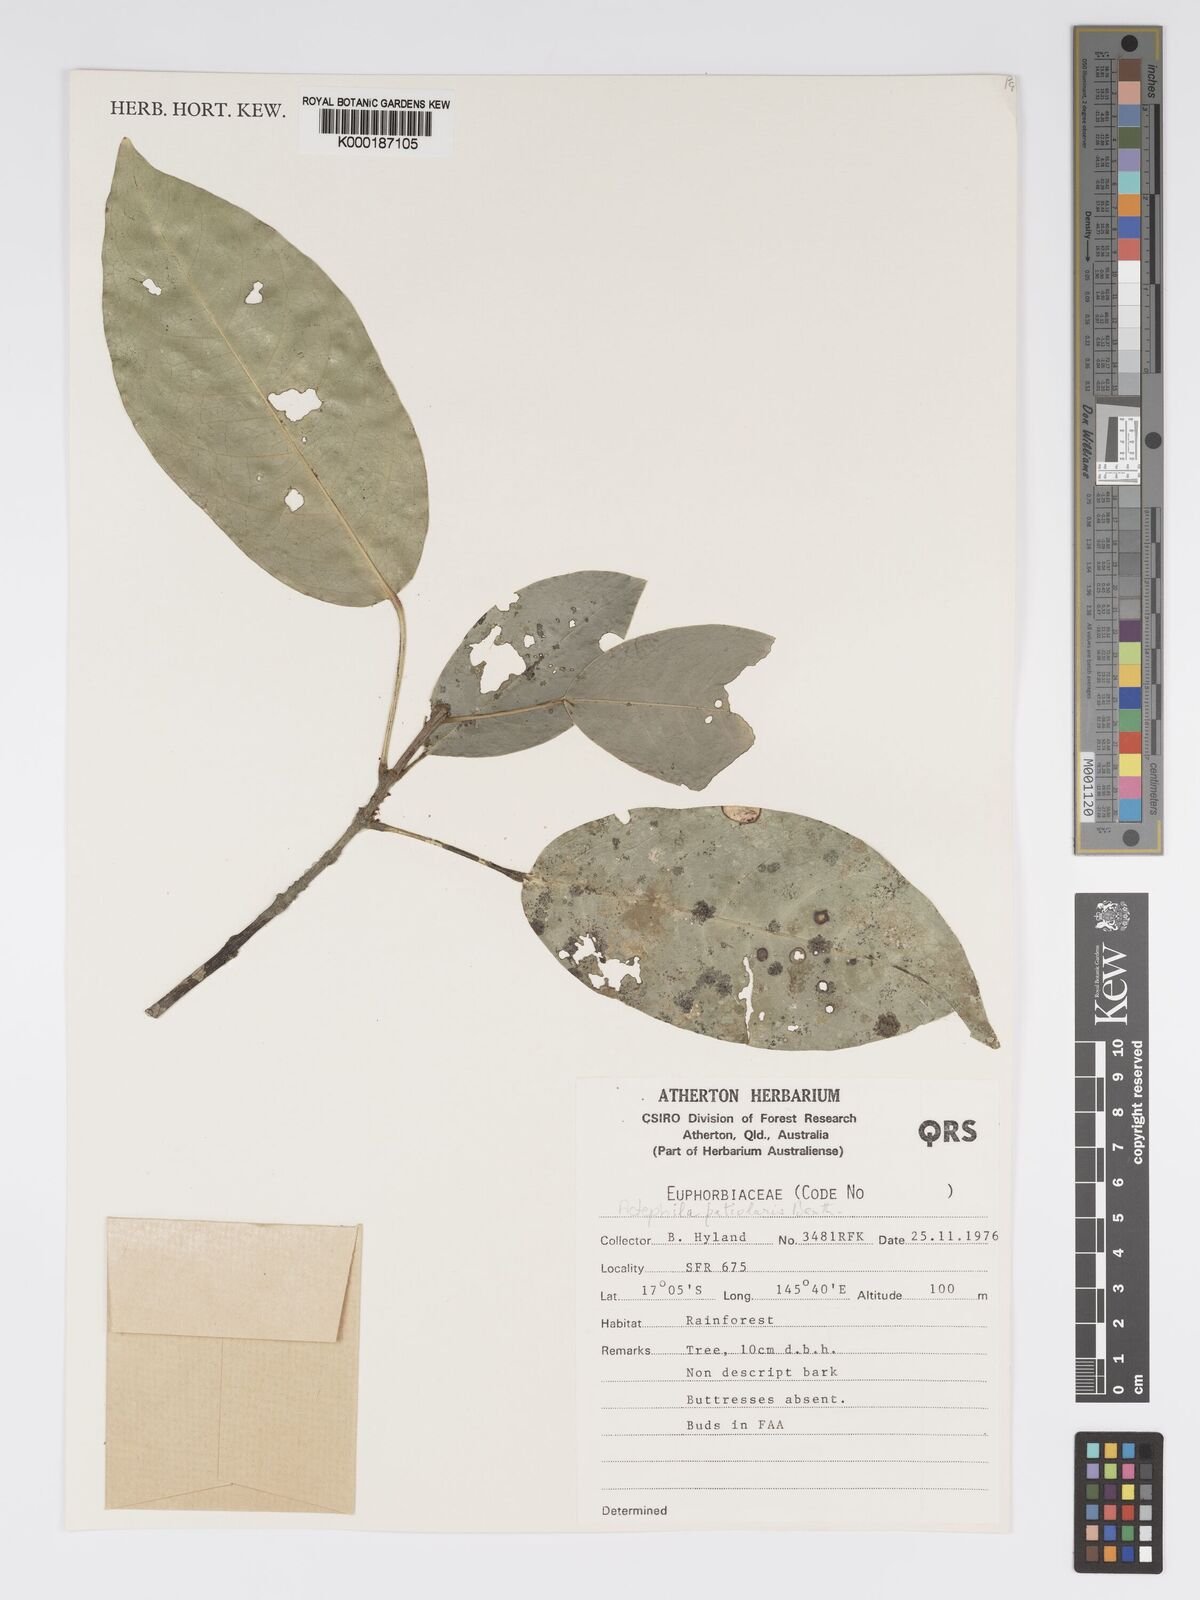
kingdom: Plantae
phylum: Tracheophyta
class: Magnoliopsida
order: Malpighiales
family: Phyllanthaceae
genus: Actephila
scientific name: Actephila lindleyi
